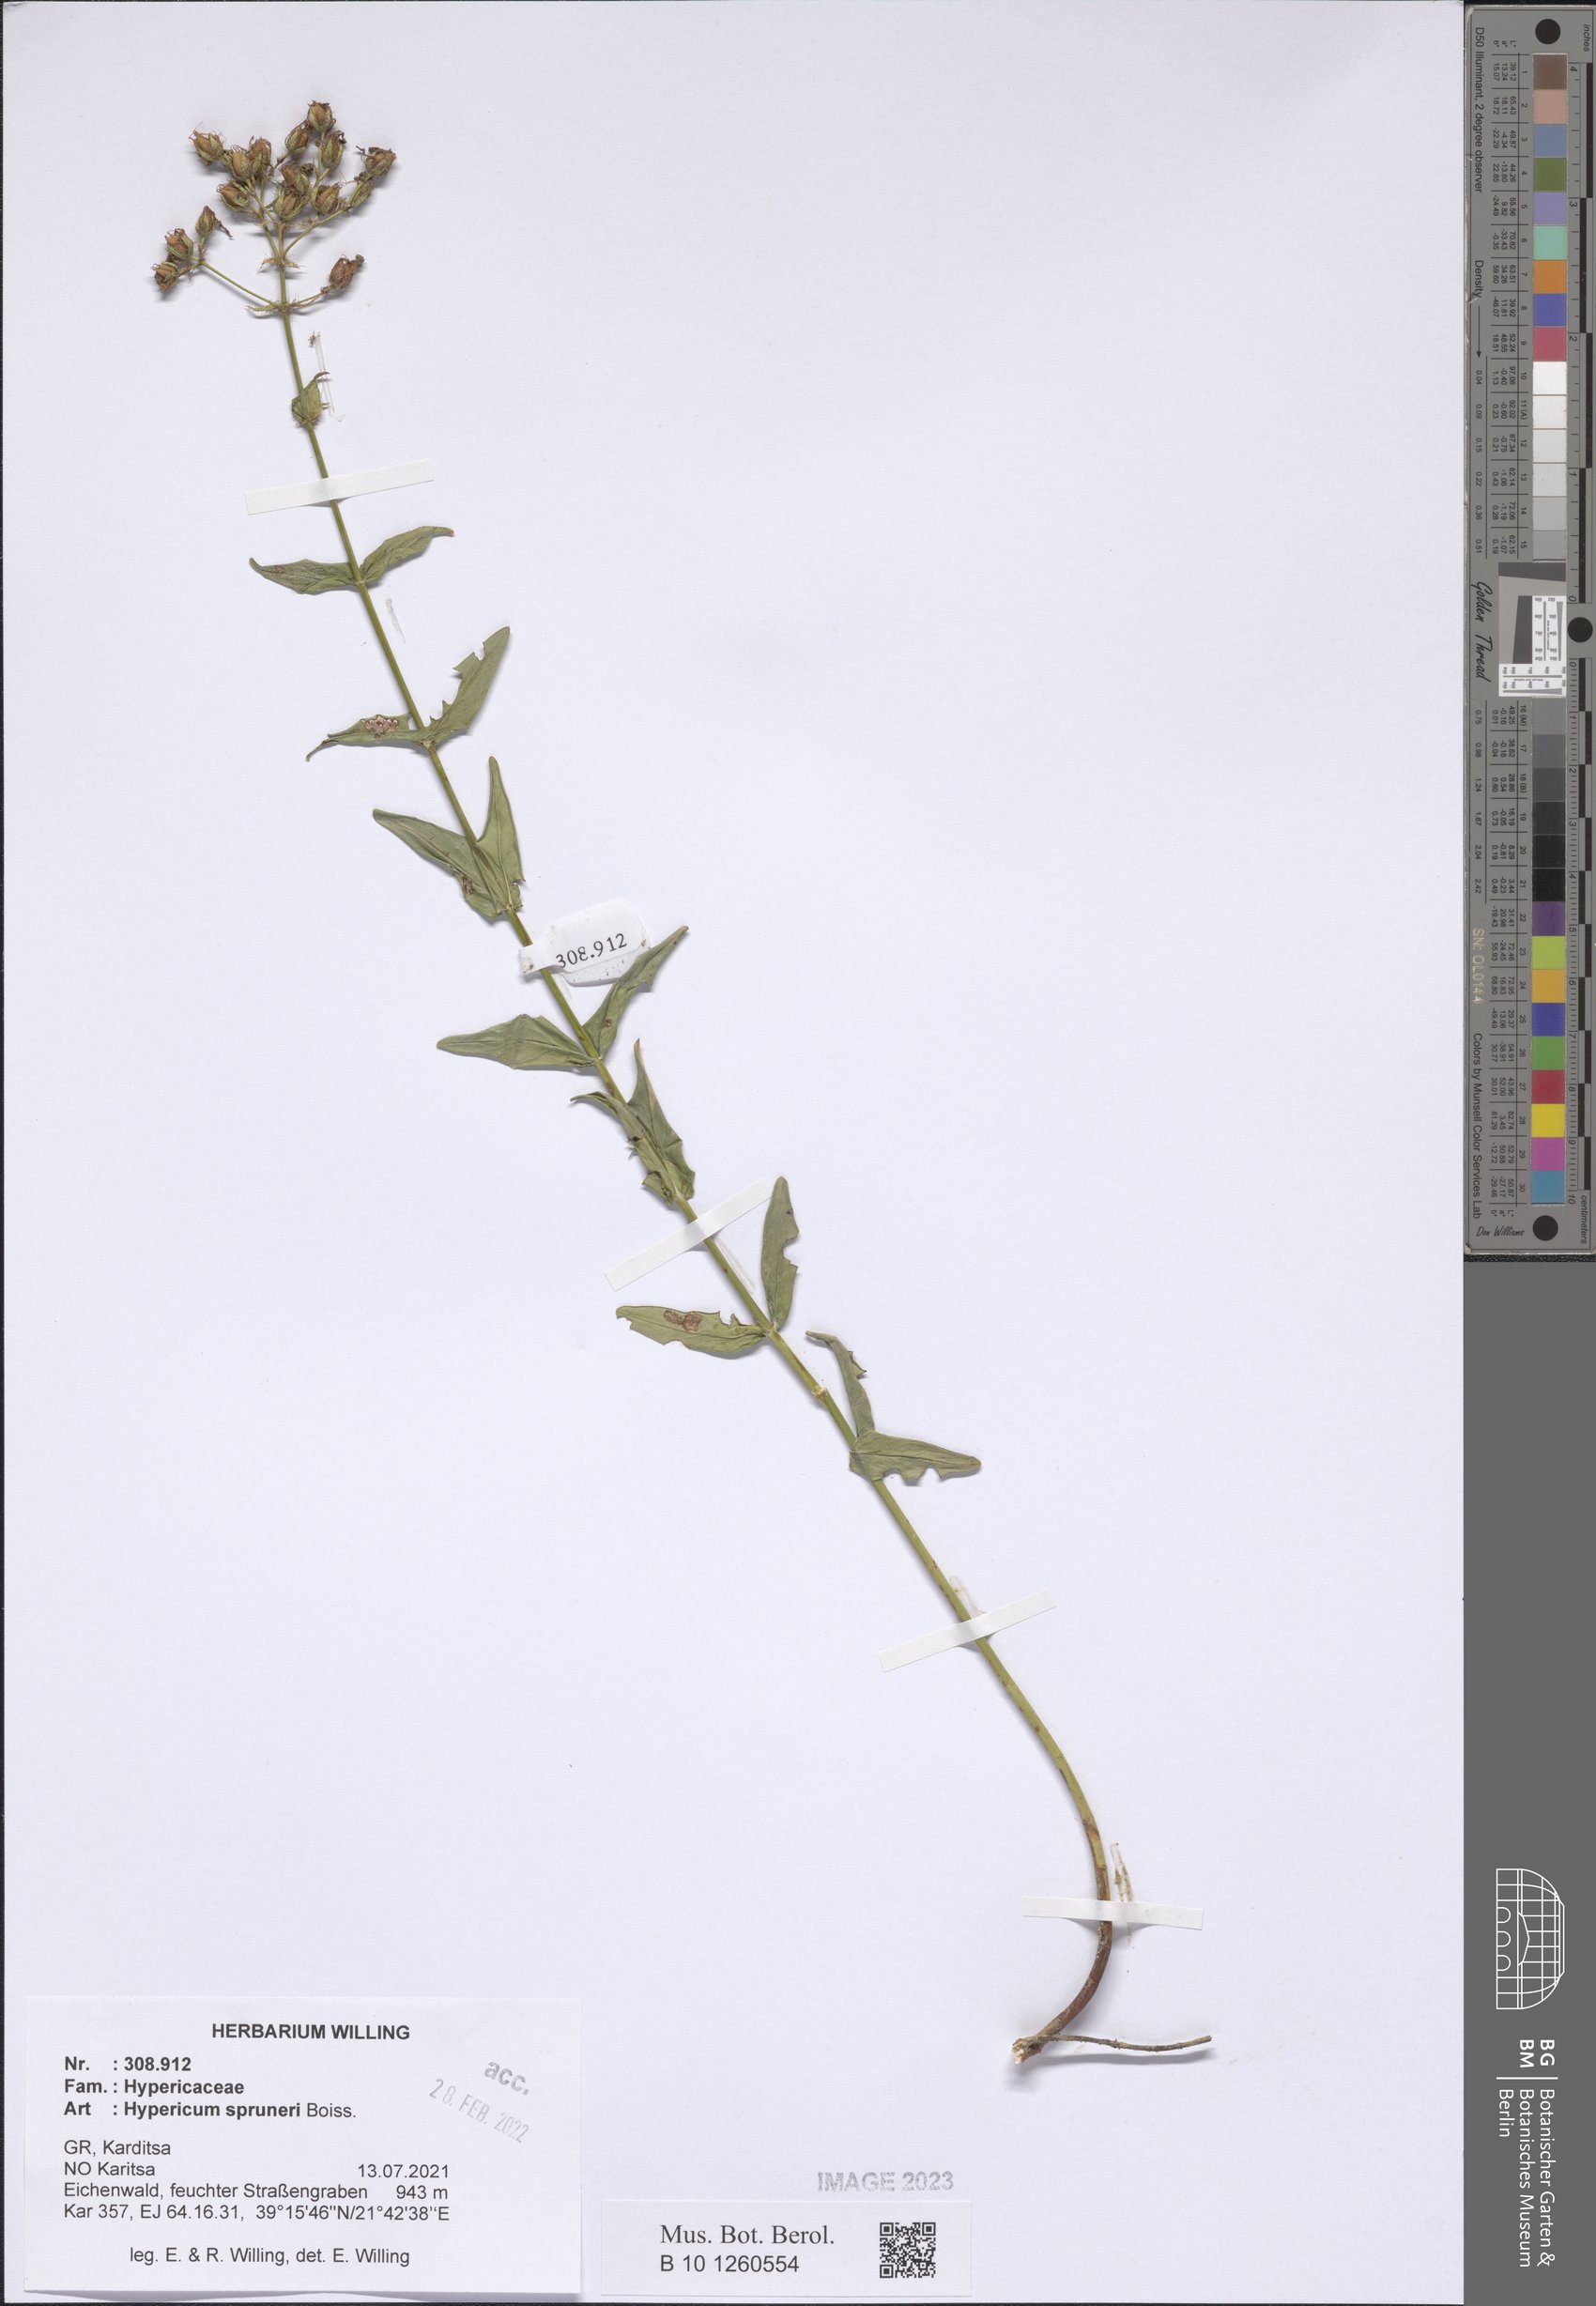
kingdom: Plantae
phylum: Tracheophyta
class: Magnoliopsida
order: Malpighiales
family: Hypericaceae
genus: Hypericum
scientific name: Hypericum spruneri
